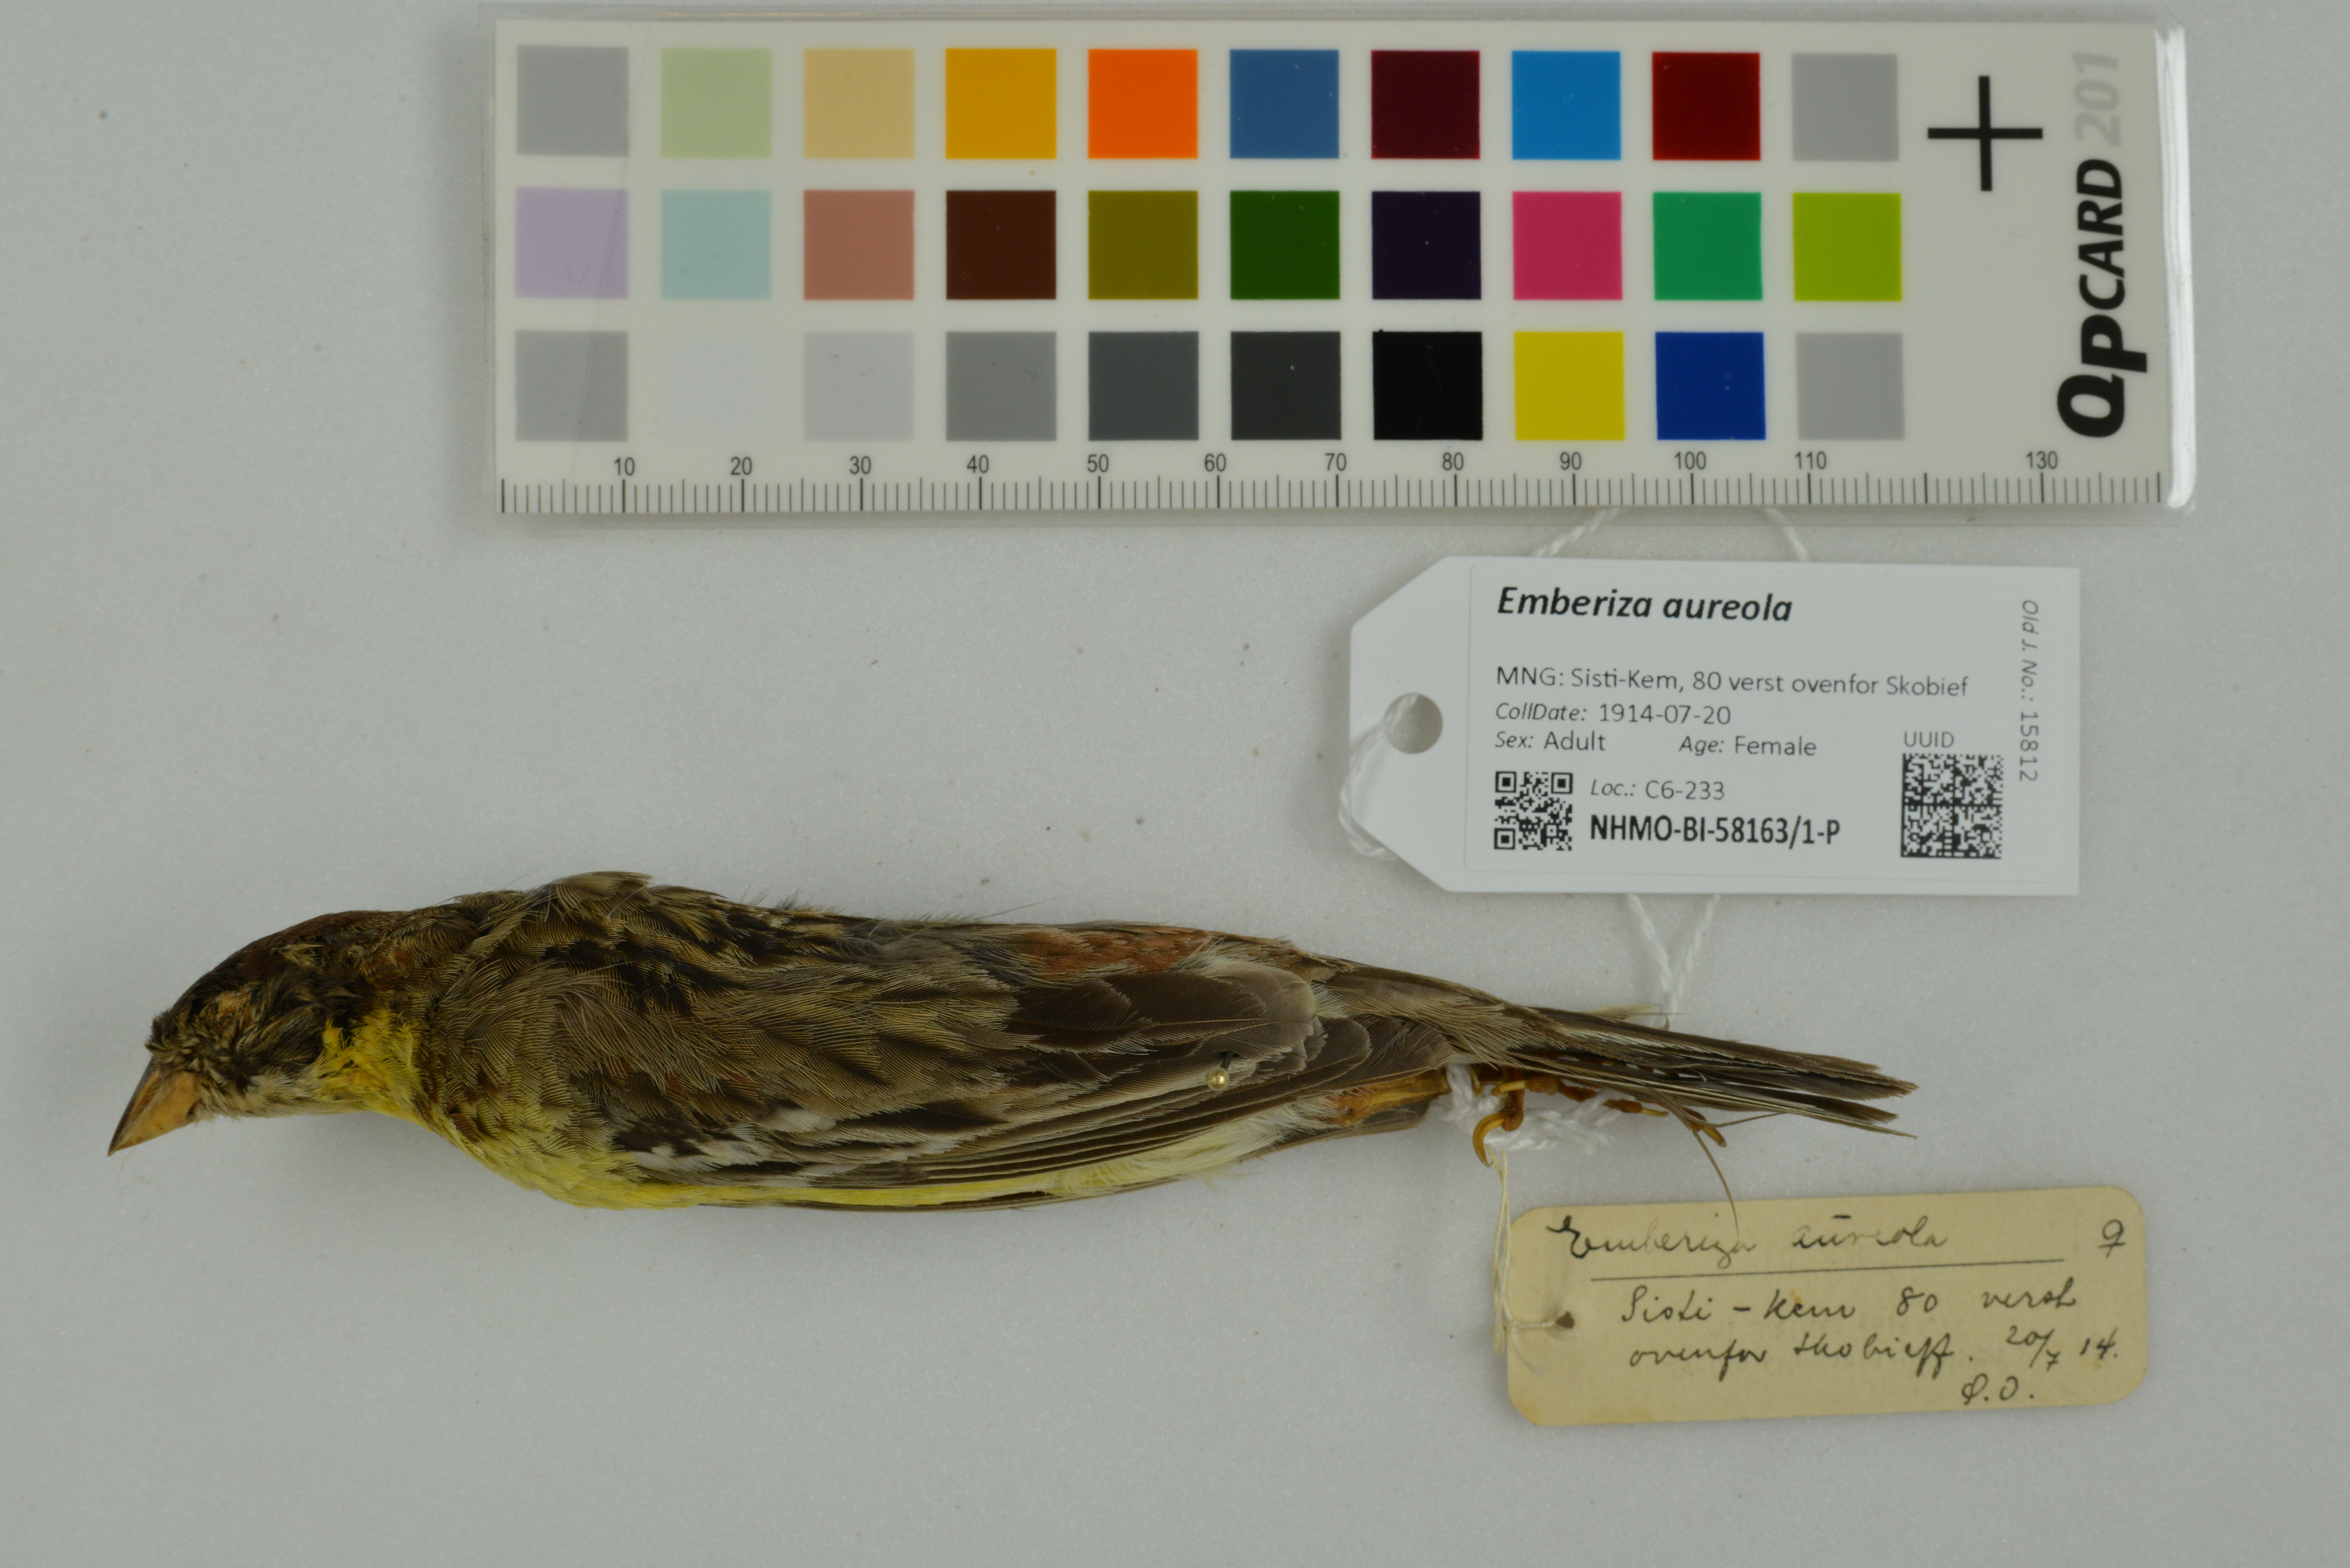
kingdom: Animalia
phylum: Chordata
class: Aves
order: Passeriformes
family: Emberizidae
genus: Emberiza
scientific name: Emberiza aureola
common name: Yellow-breasted bunting
